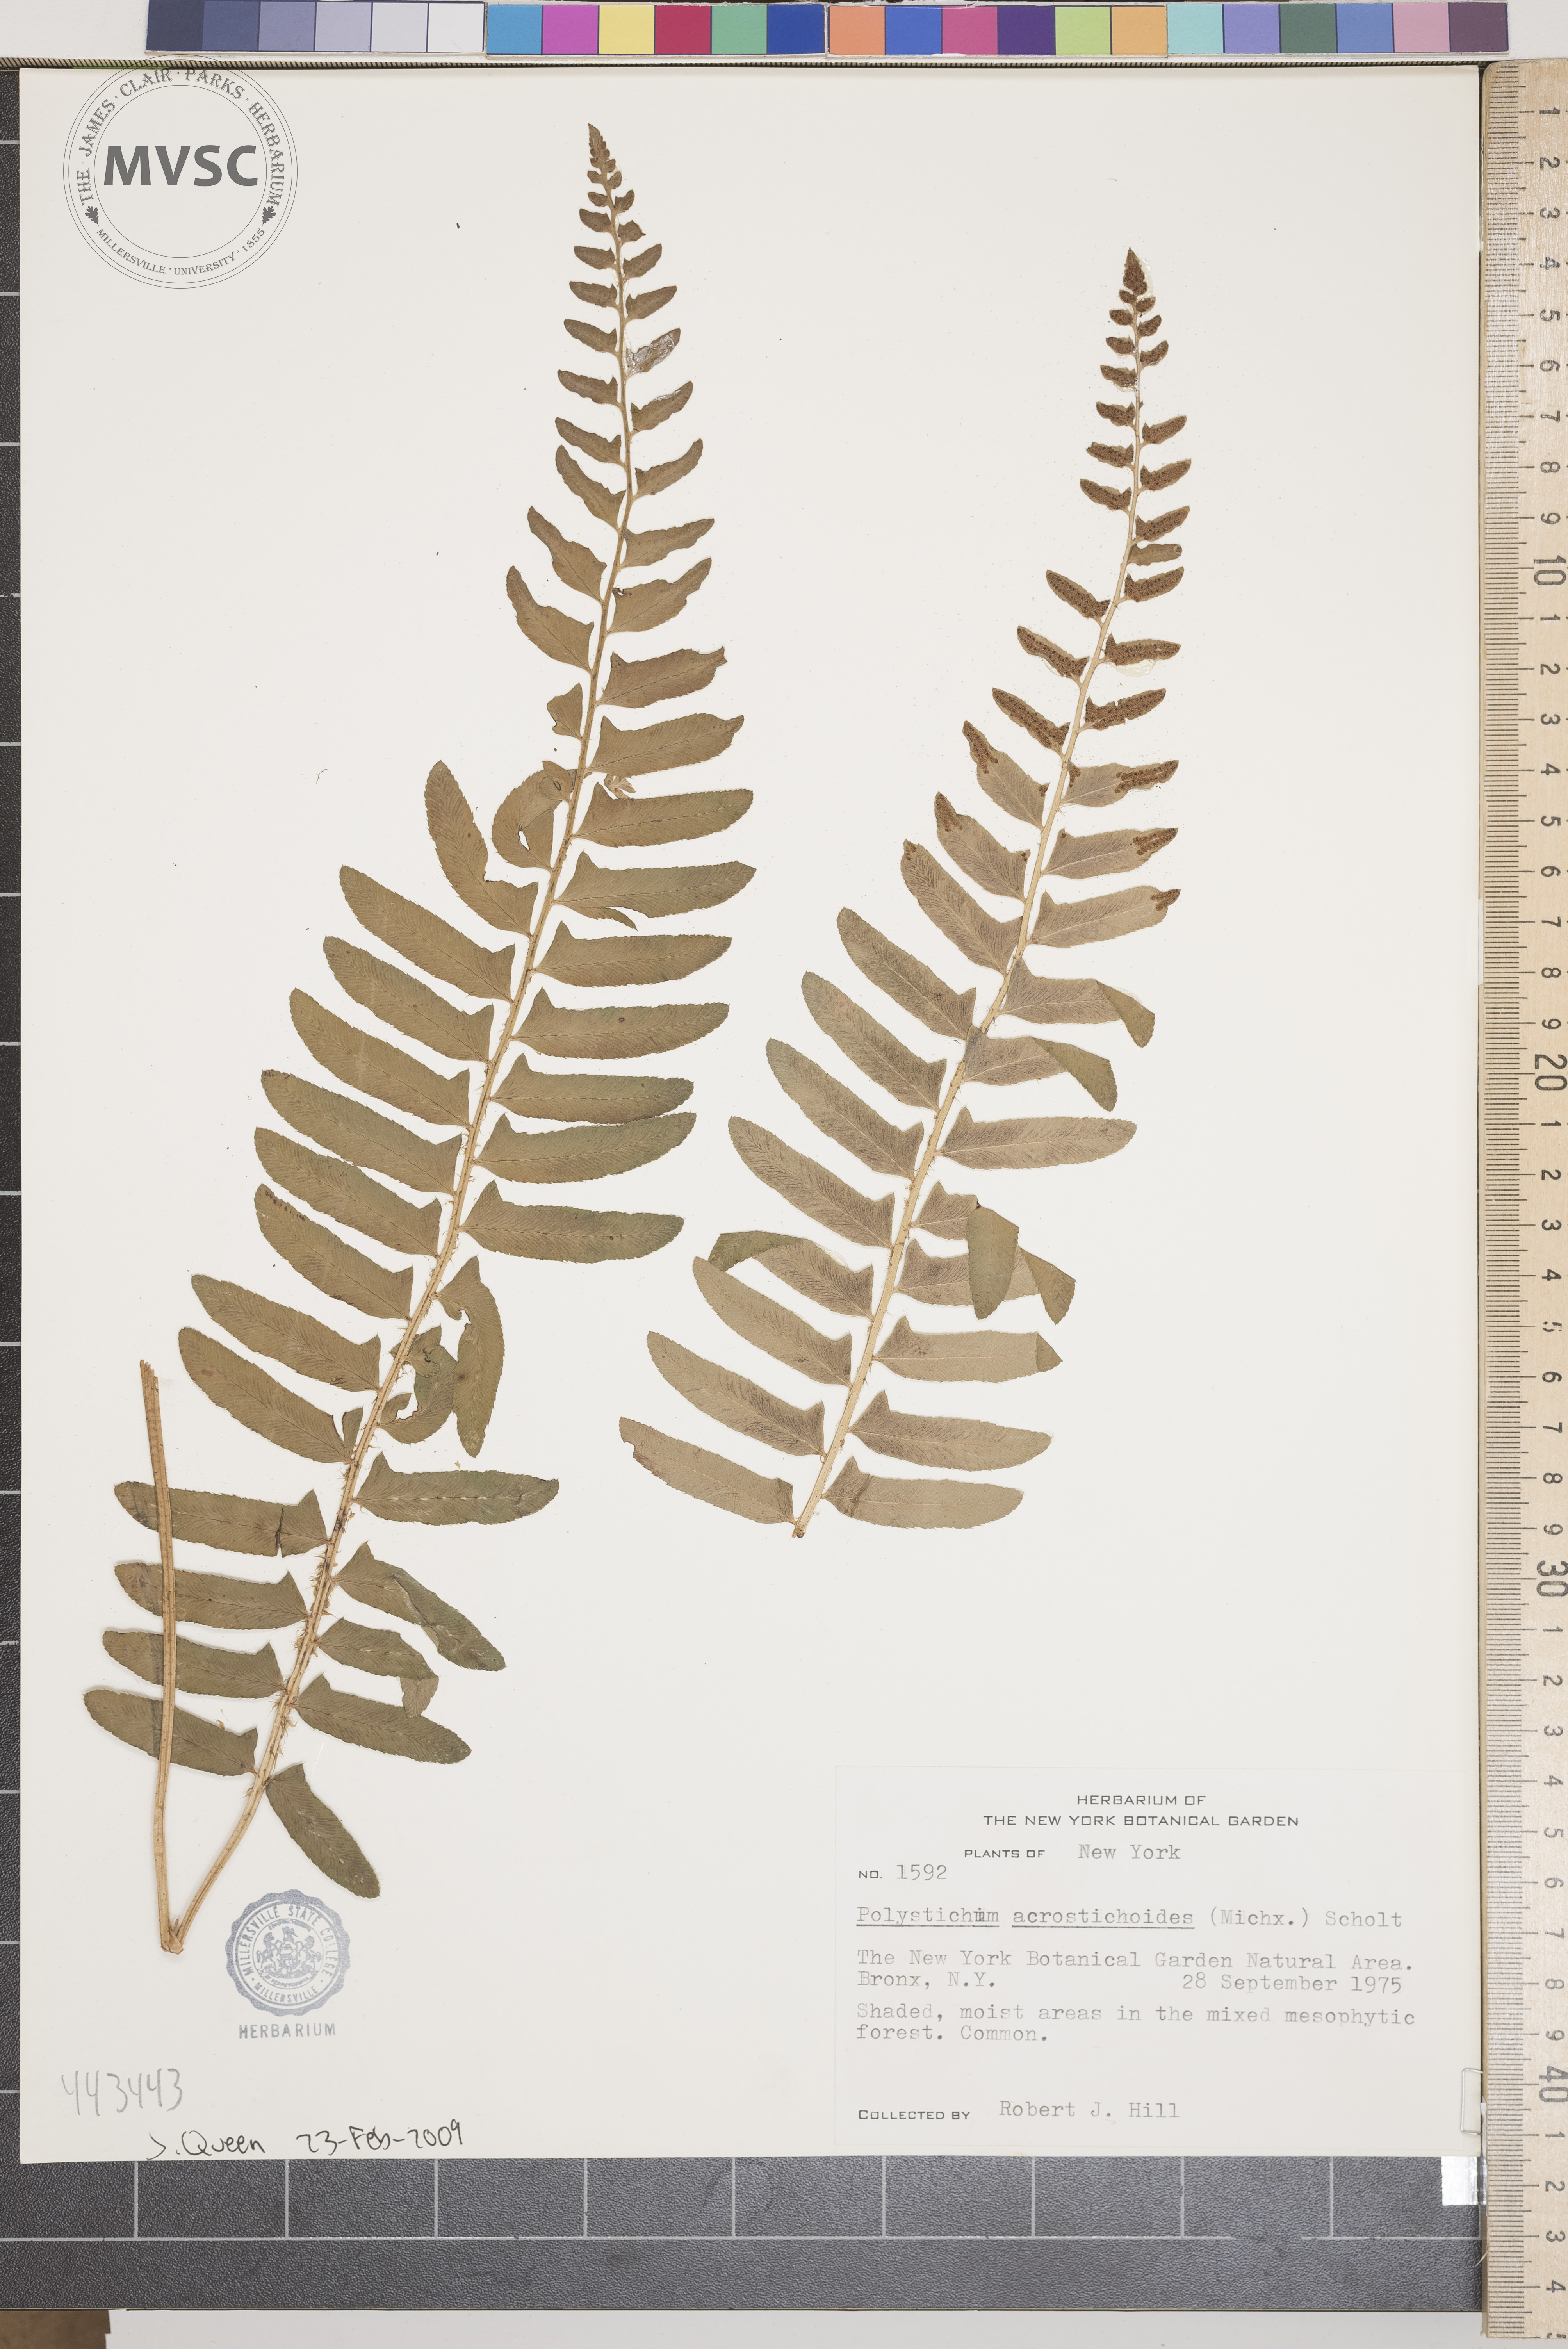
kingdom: Plantae
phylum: Tracheophyta
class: Polypodiopsida
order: Polypodiales
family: Dryopteridaceae
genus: Polystichum
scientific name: Polystichum acrostichoides
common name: Christmas fern
